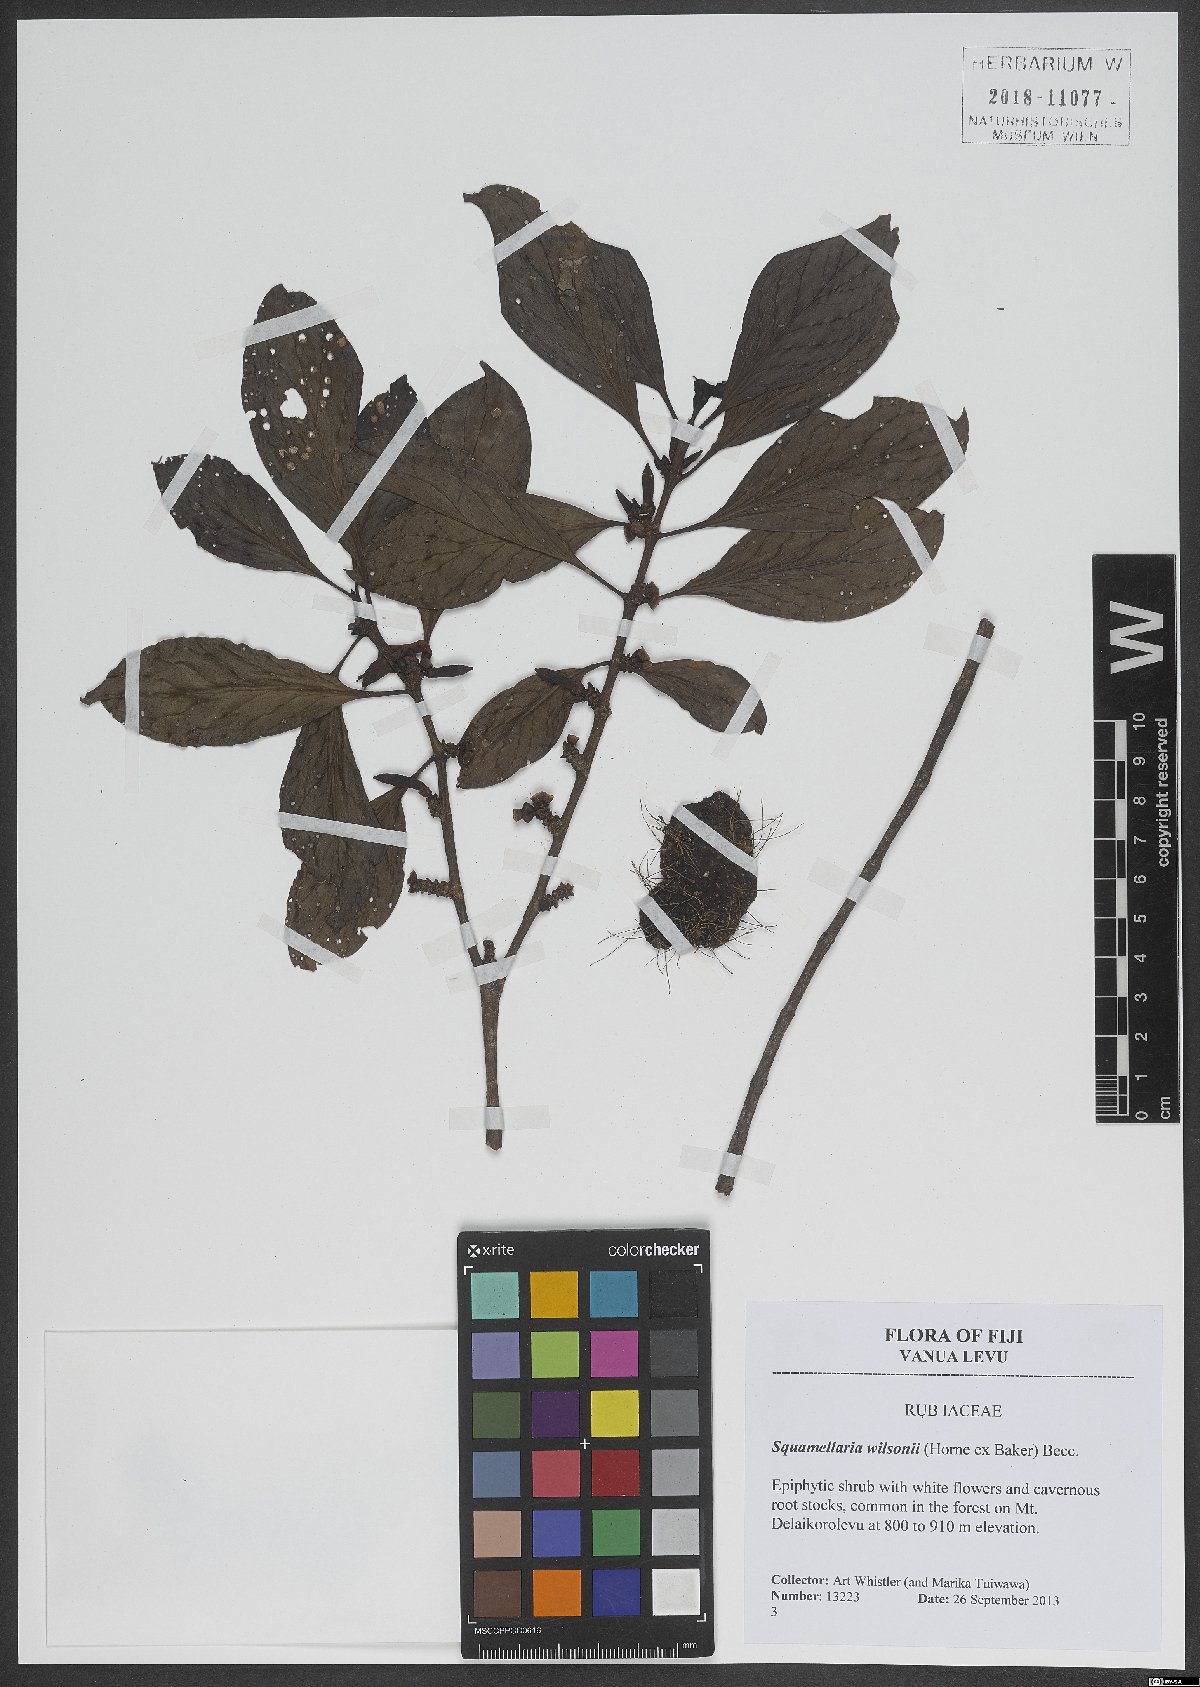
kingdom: Plantae
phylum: Tracheophyta
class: Magnoliopsida
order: Gentianales
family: Rubiaceae
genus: Squamellaria
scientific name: Squamellaria imberbis
